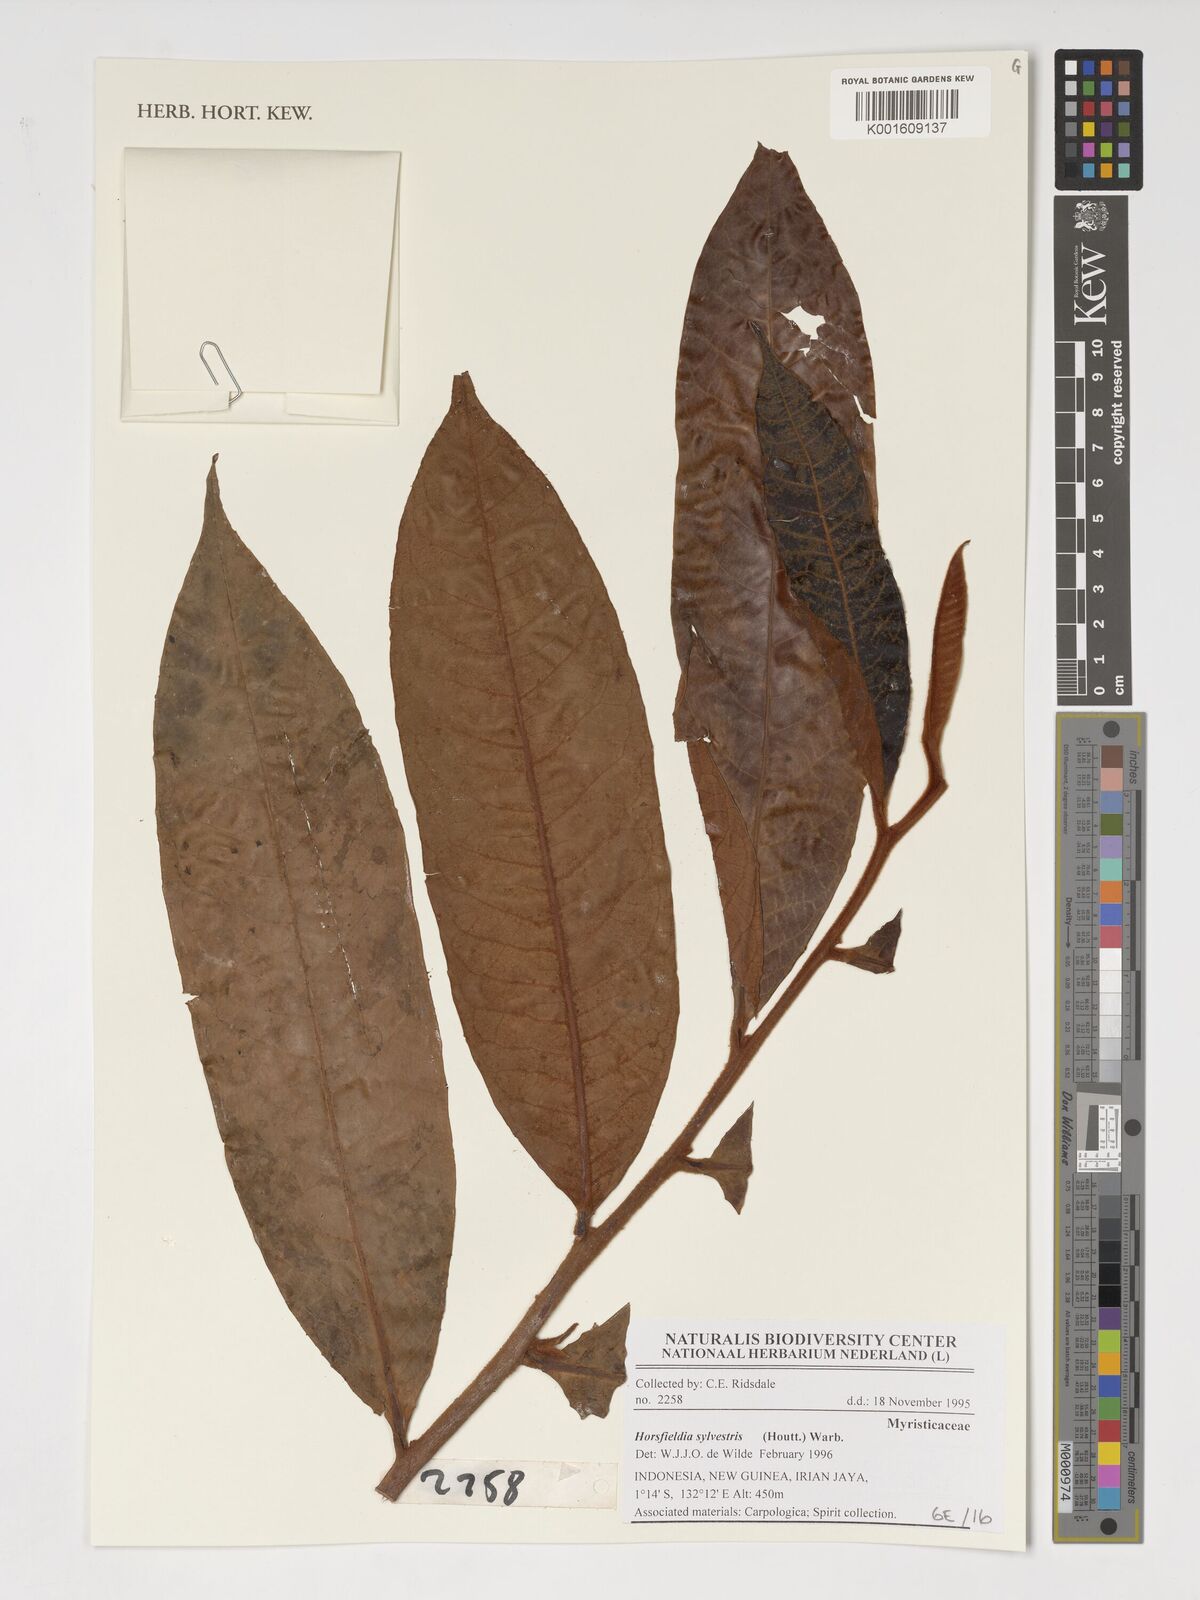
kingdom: Plantae
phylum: Tracheophyta
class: Magnoliopsida
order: Magnoliales
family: Myristicaceae
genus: Horsfieldia
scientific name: Horsfieldia sylvestris
